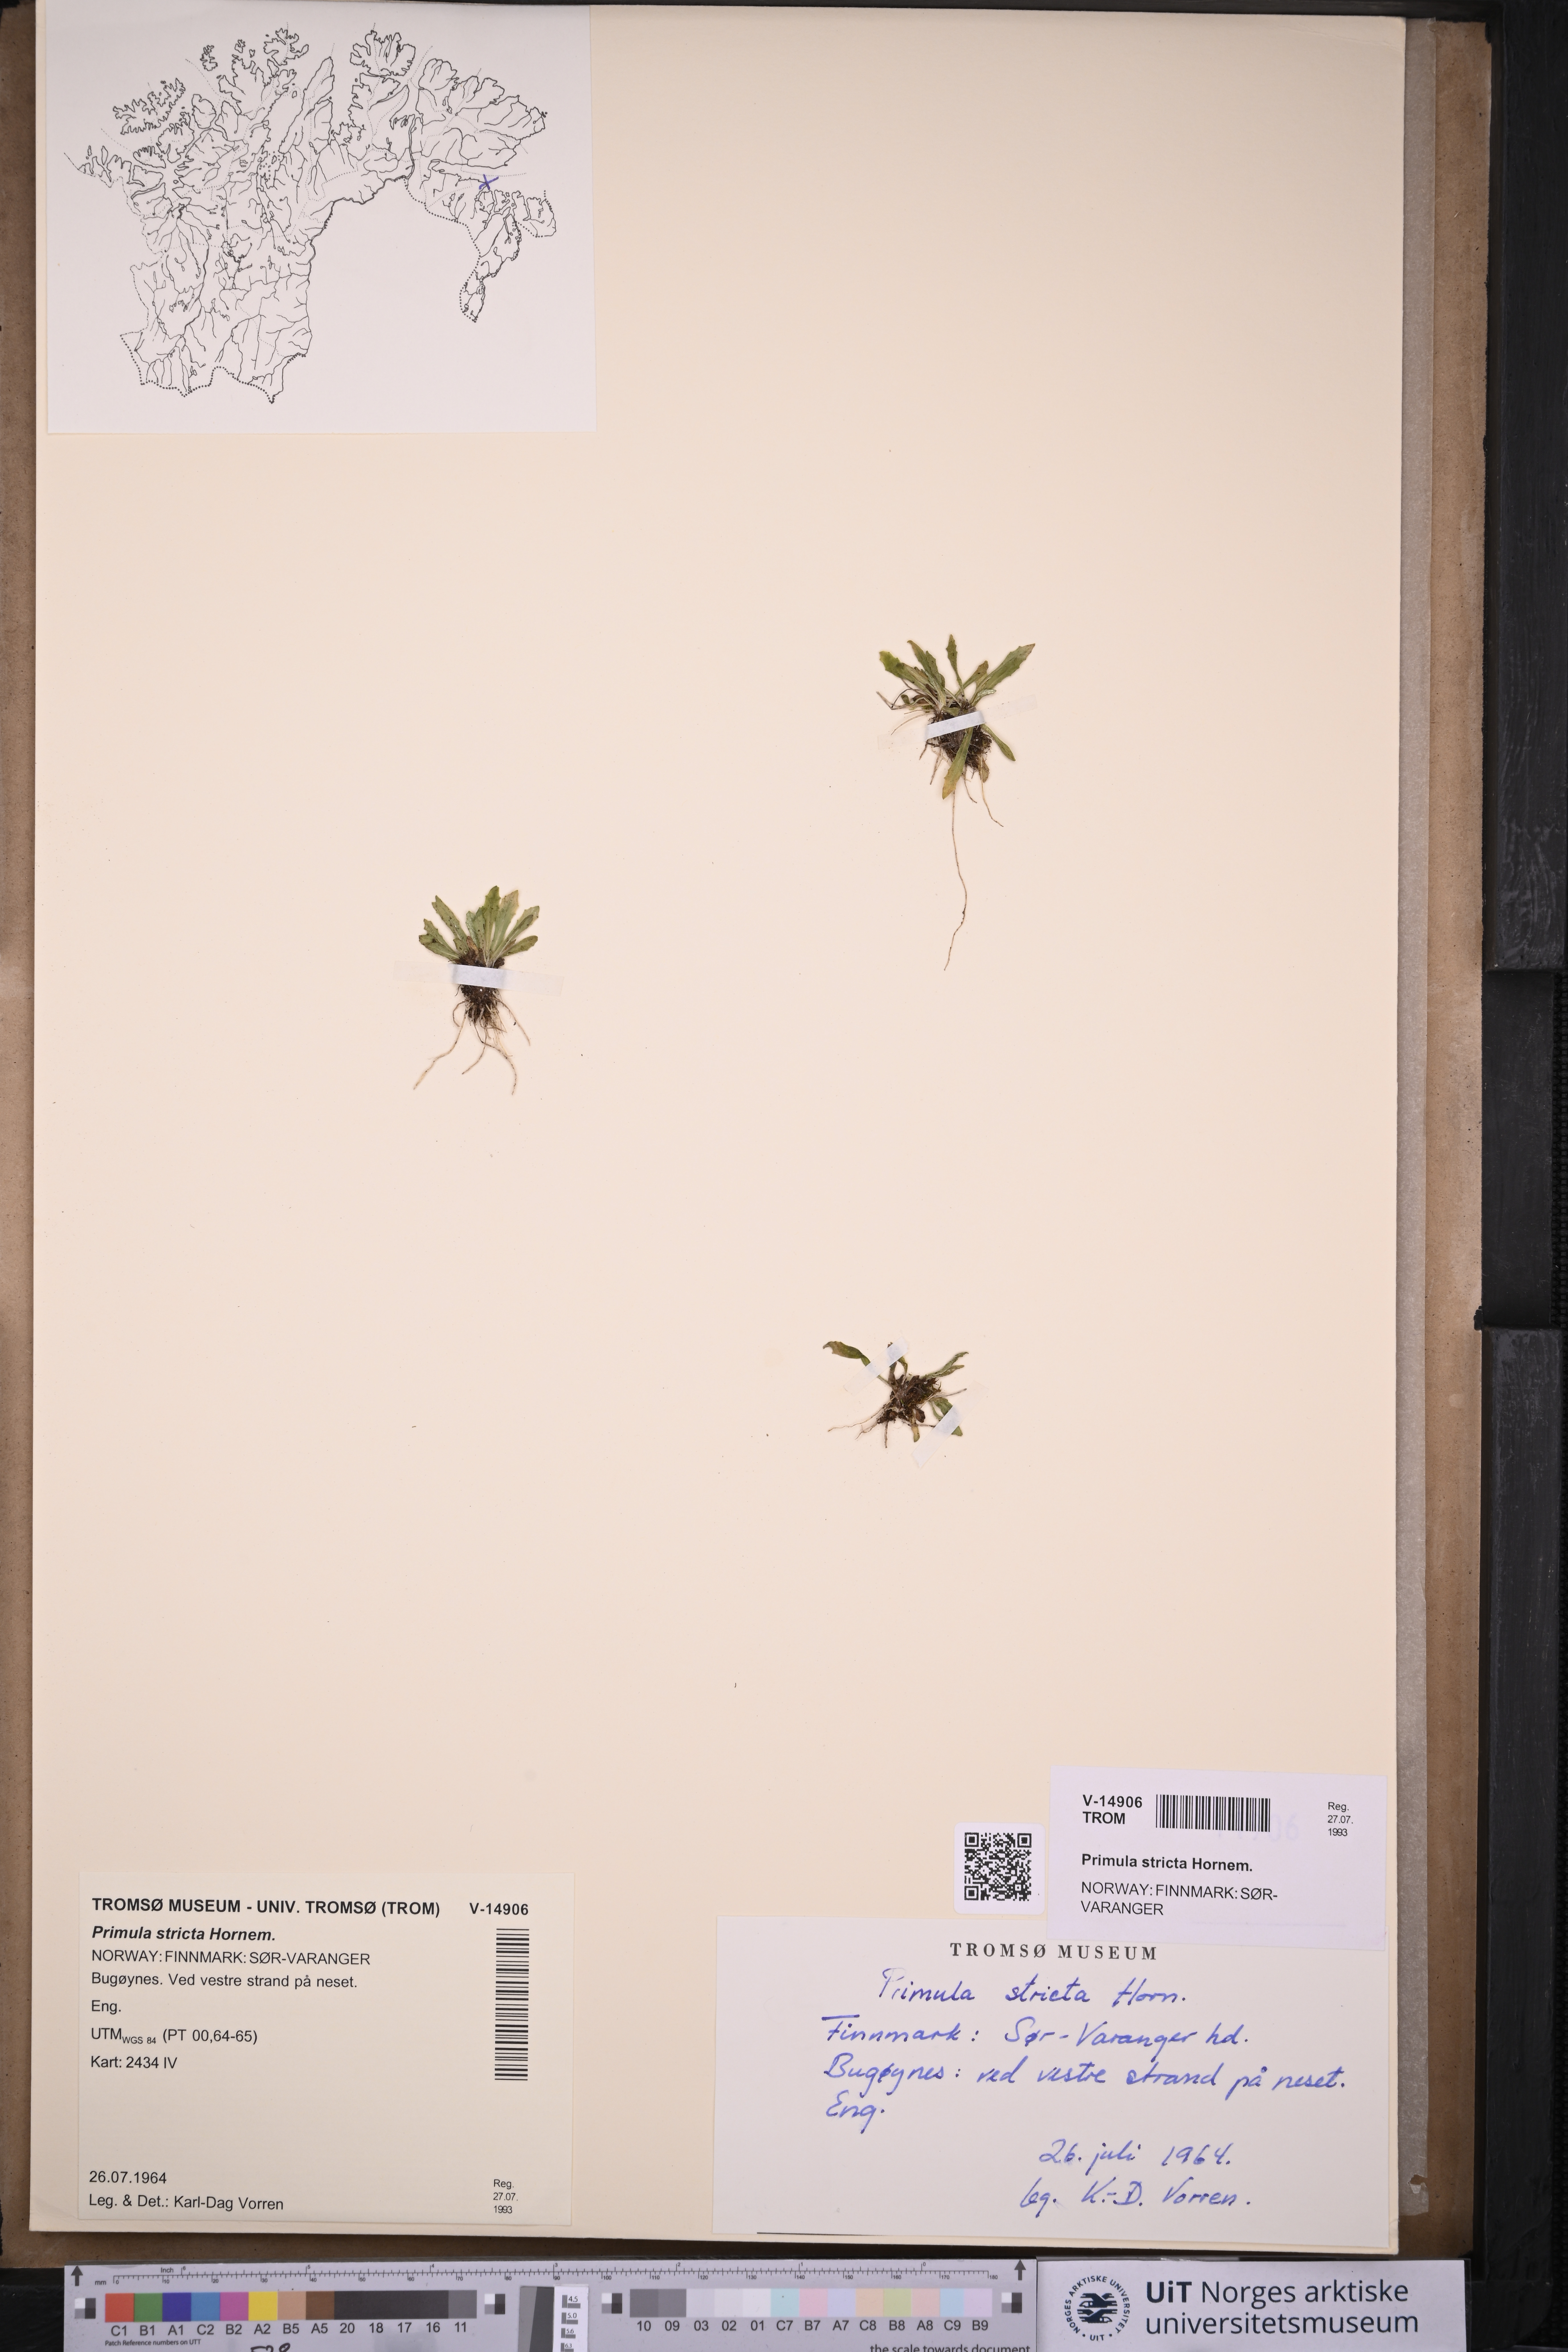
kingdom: Plantae
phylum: Tracheophyta
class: Magnoliopsida
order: Ericales
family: Primulaceae
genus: Primula
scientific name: Primula stricta
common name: Coastal primrose
